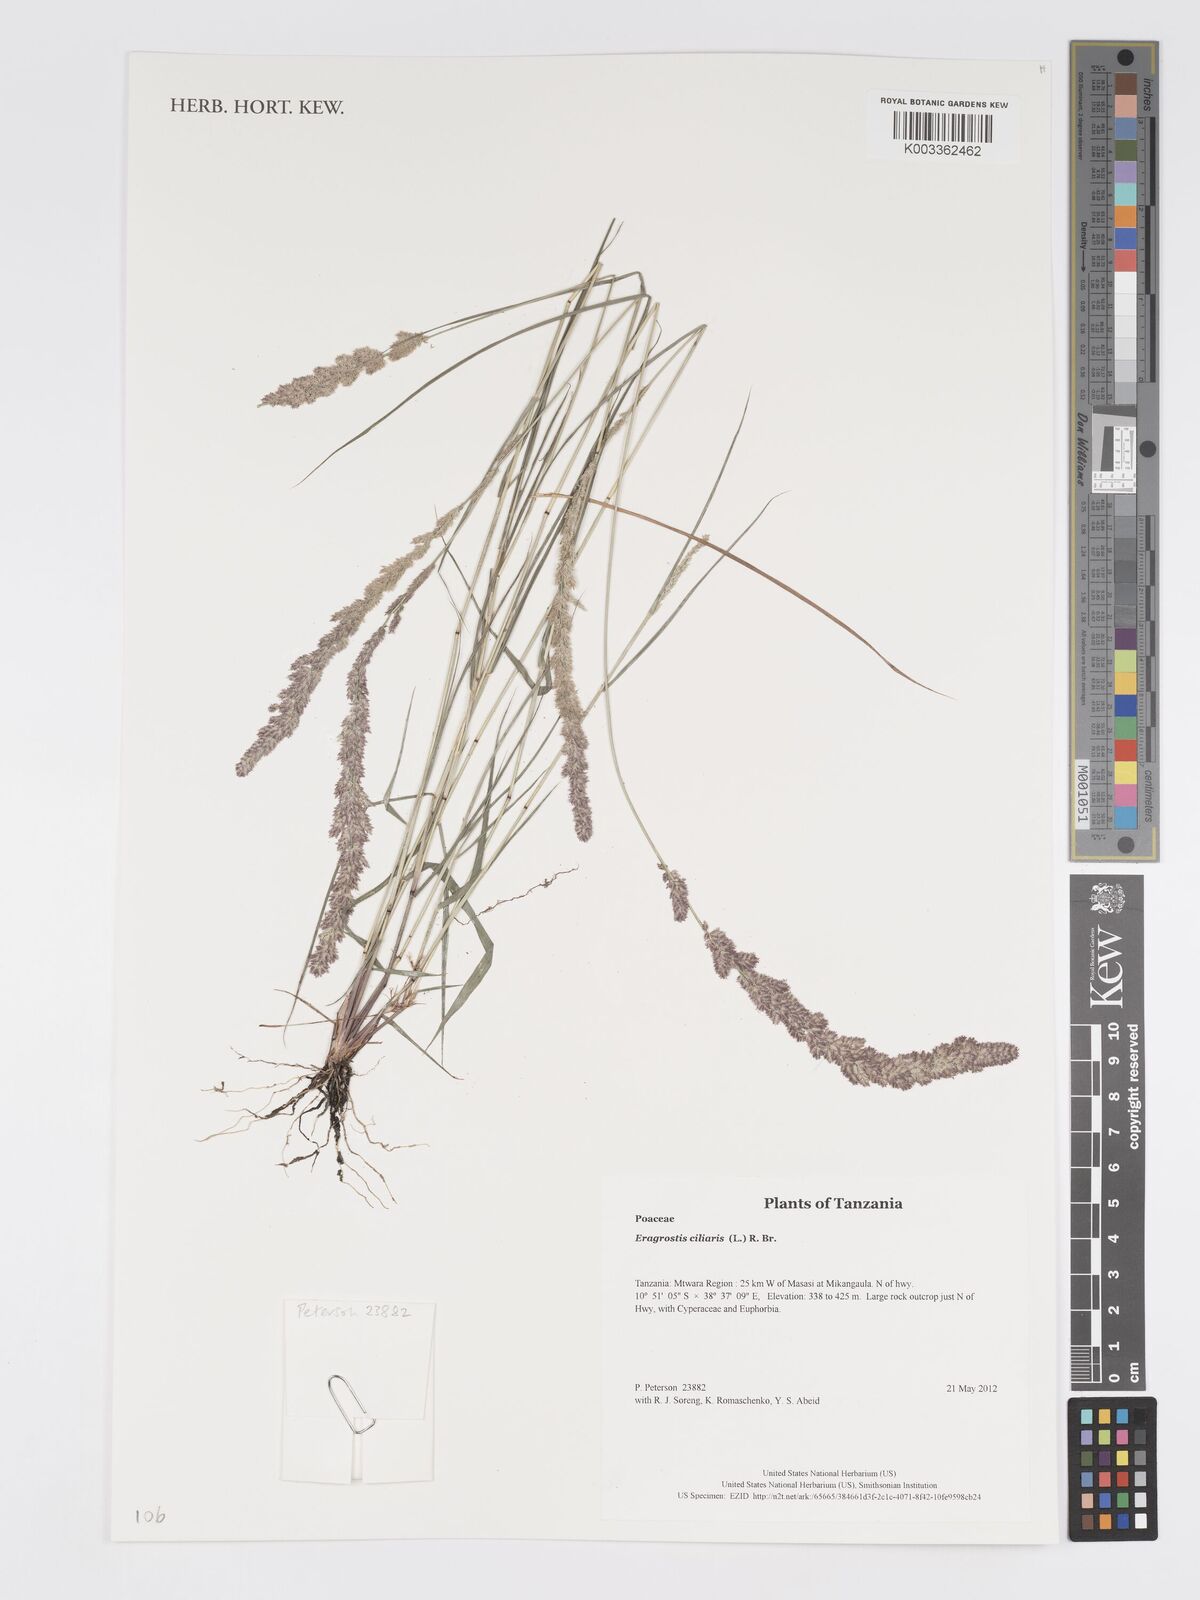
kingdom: Plantae
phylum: Tracheophyta
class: Liliopsida
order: Poales
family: Poaceae
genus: Eragrostis
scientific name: Eragrostis ciliaris
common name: Gophertail lovegrass
